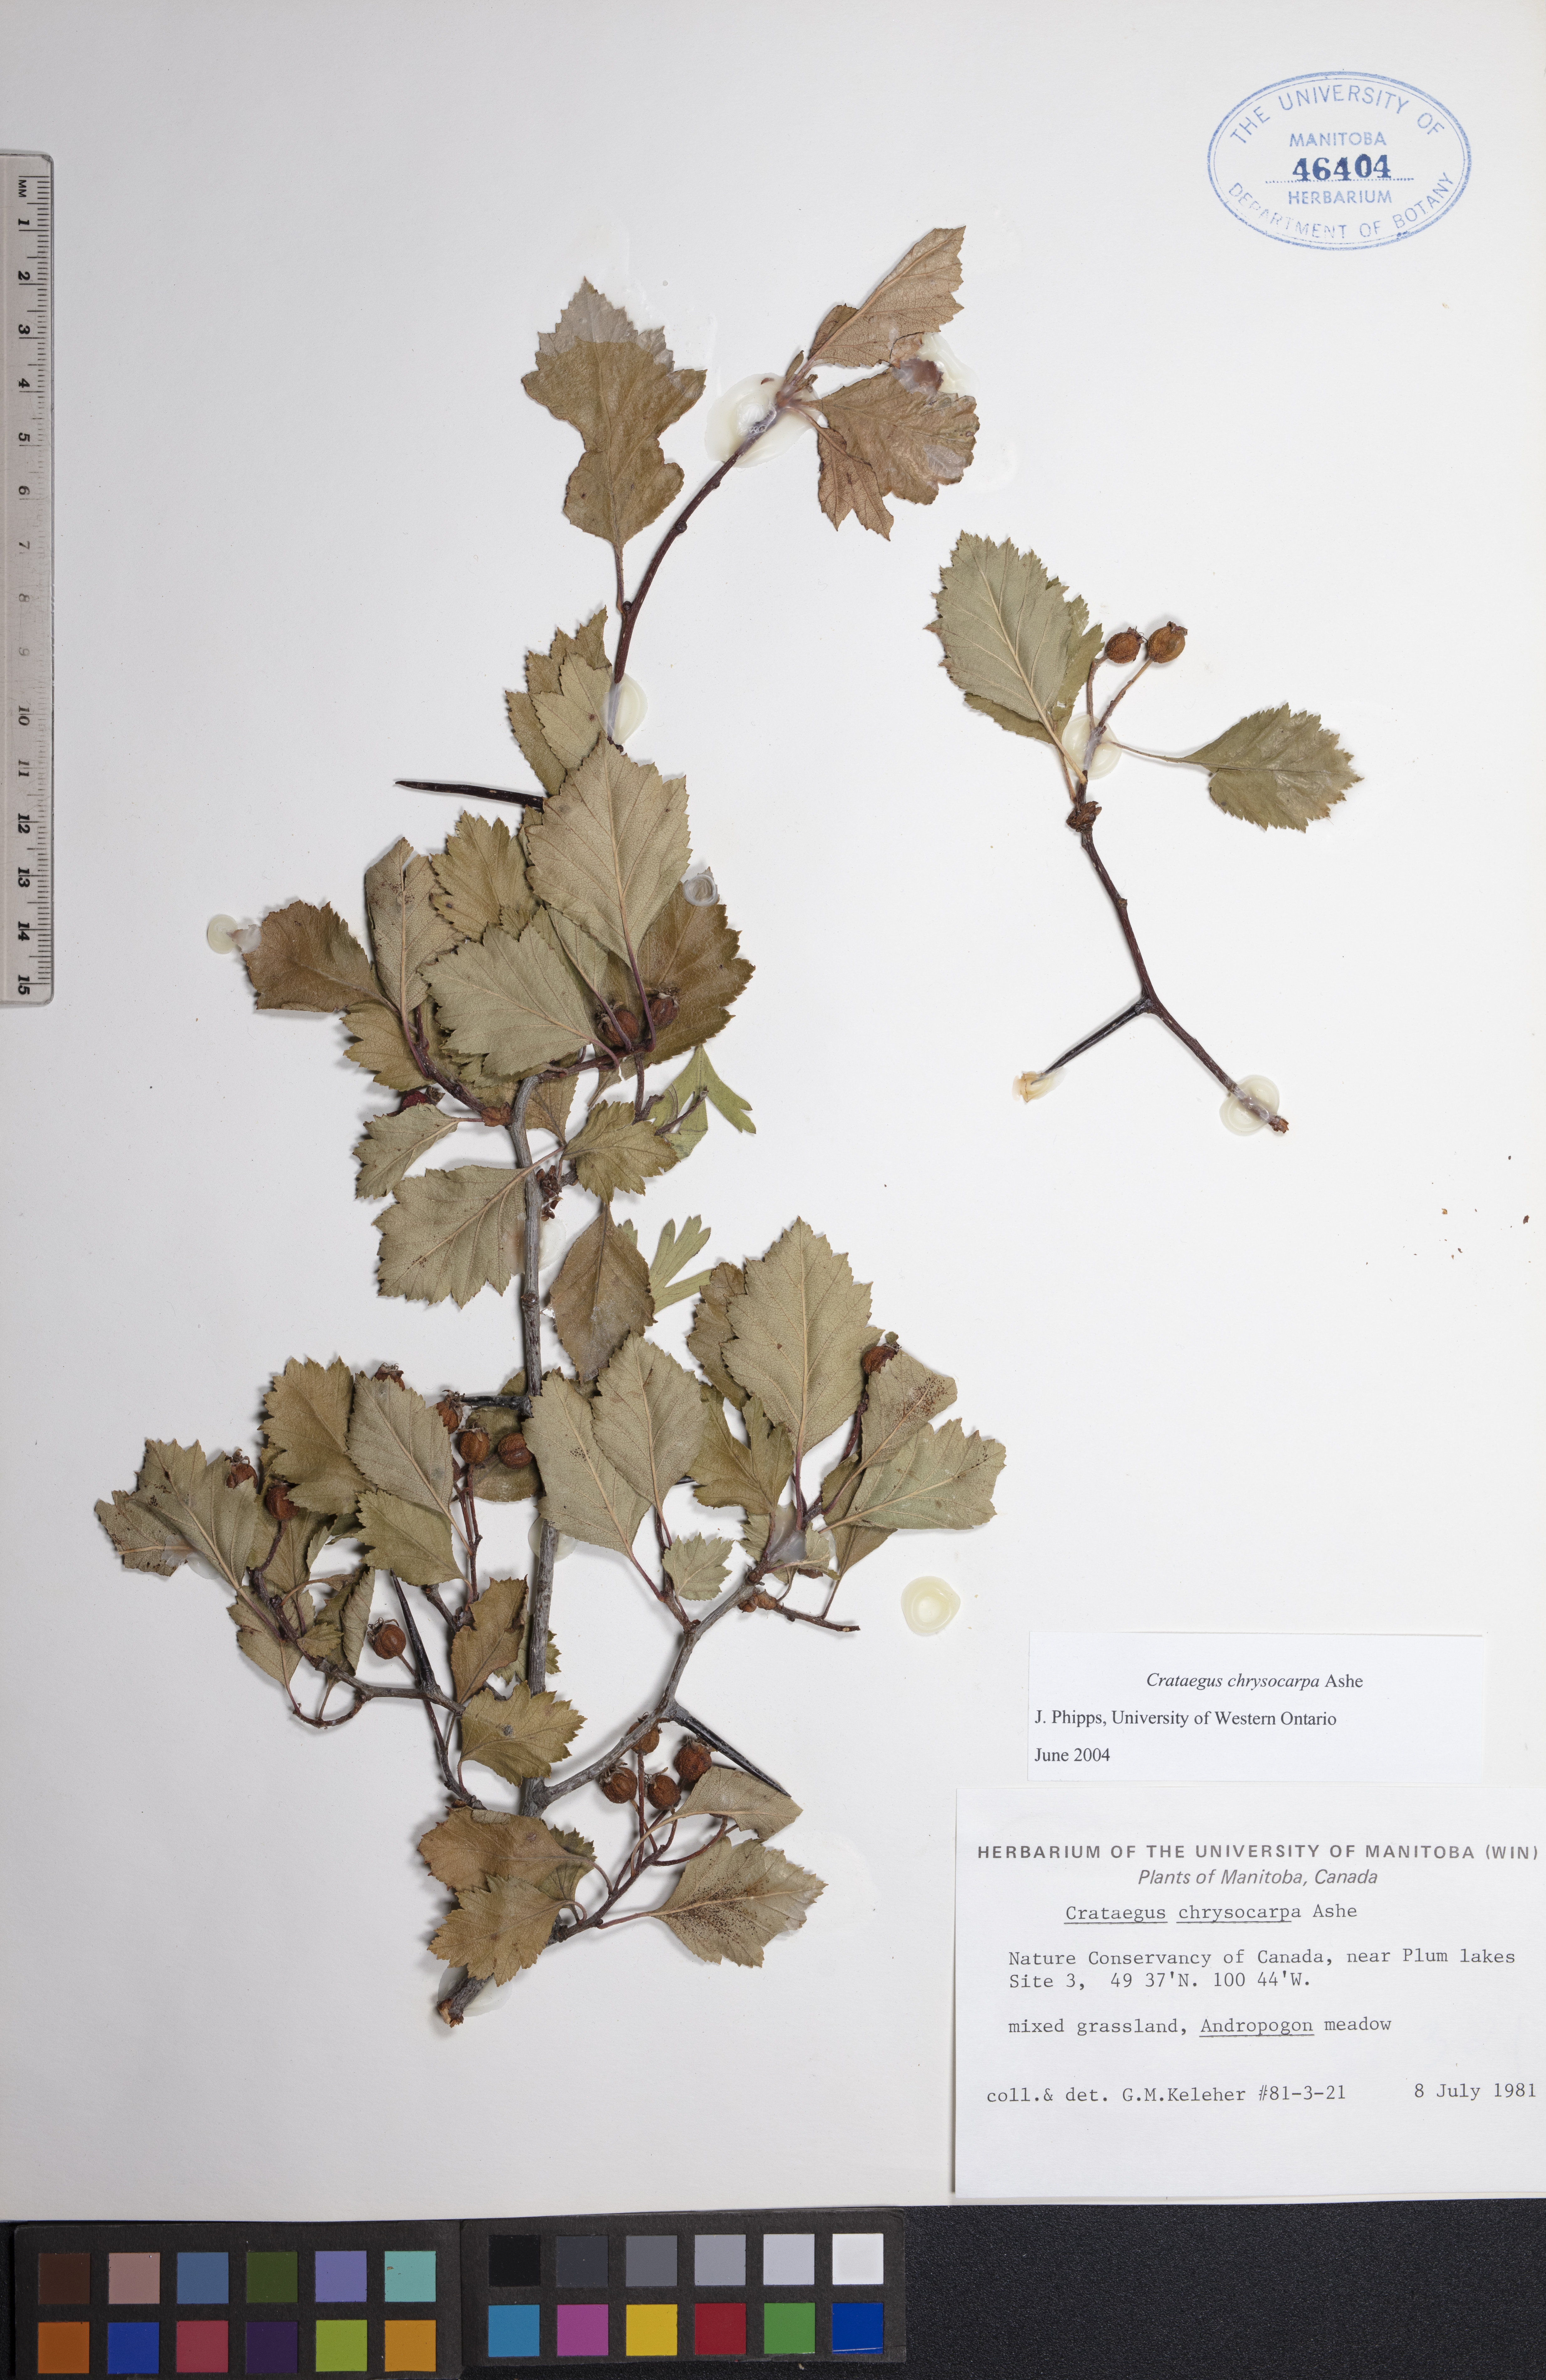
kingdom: Plantae
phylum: Tracheophyta
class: Magnoliopsida
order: Rosales
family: Rosaceae
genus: Crataegus
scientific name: Crataegus chrysocarpa
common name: Fire-berry hawthorn
